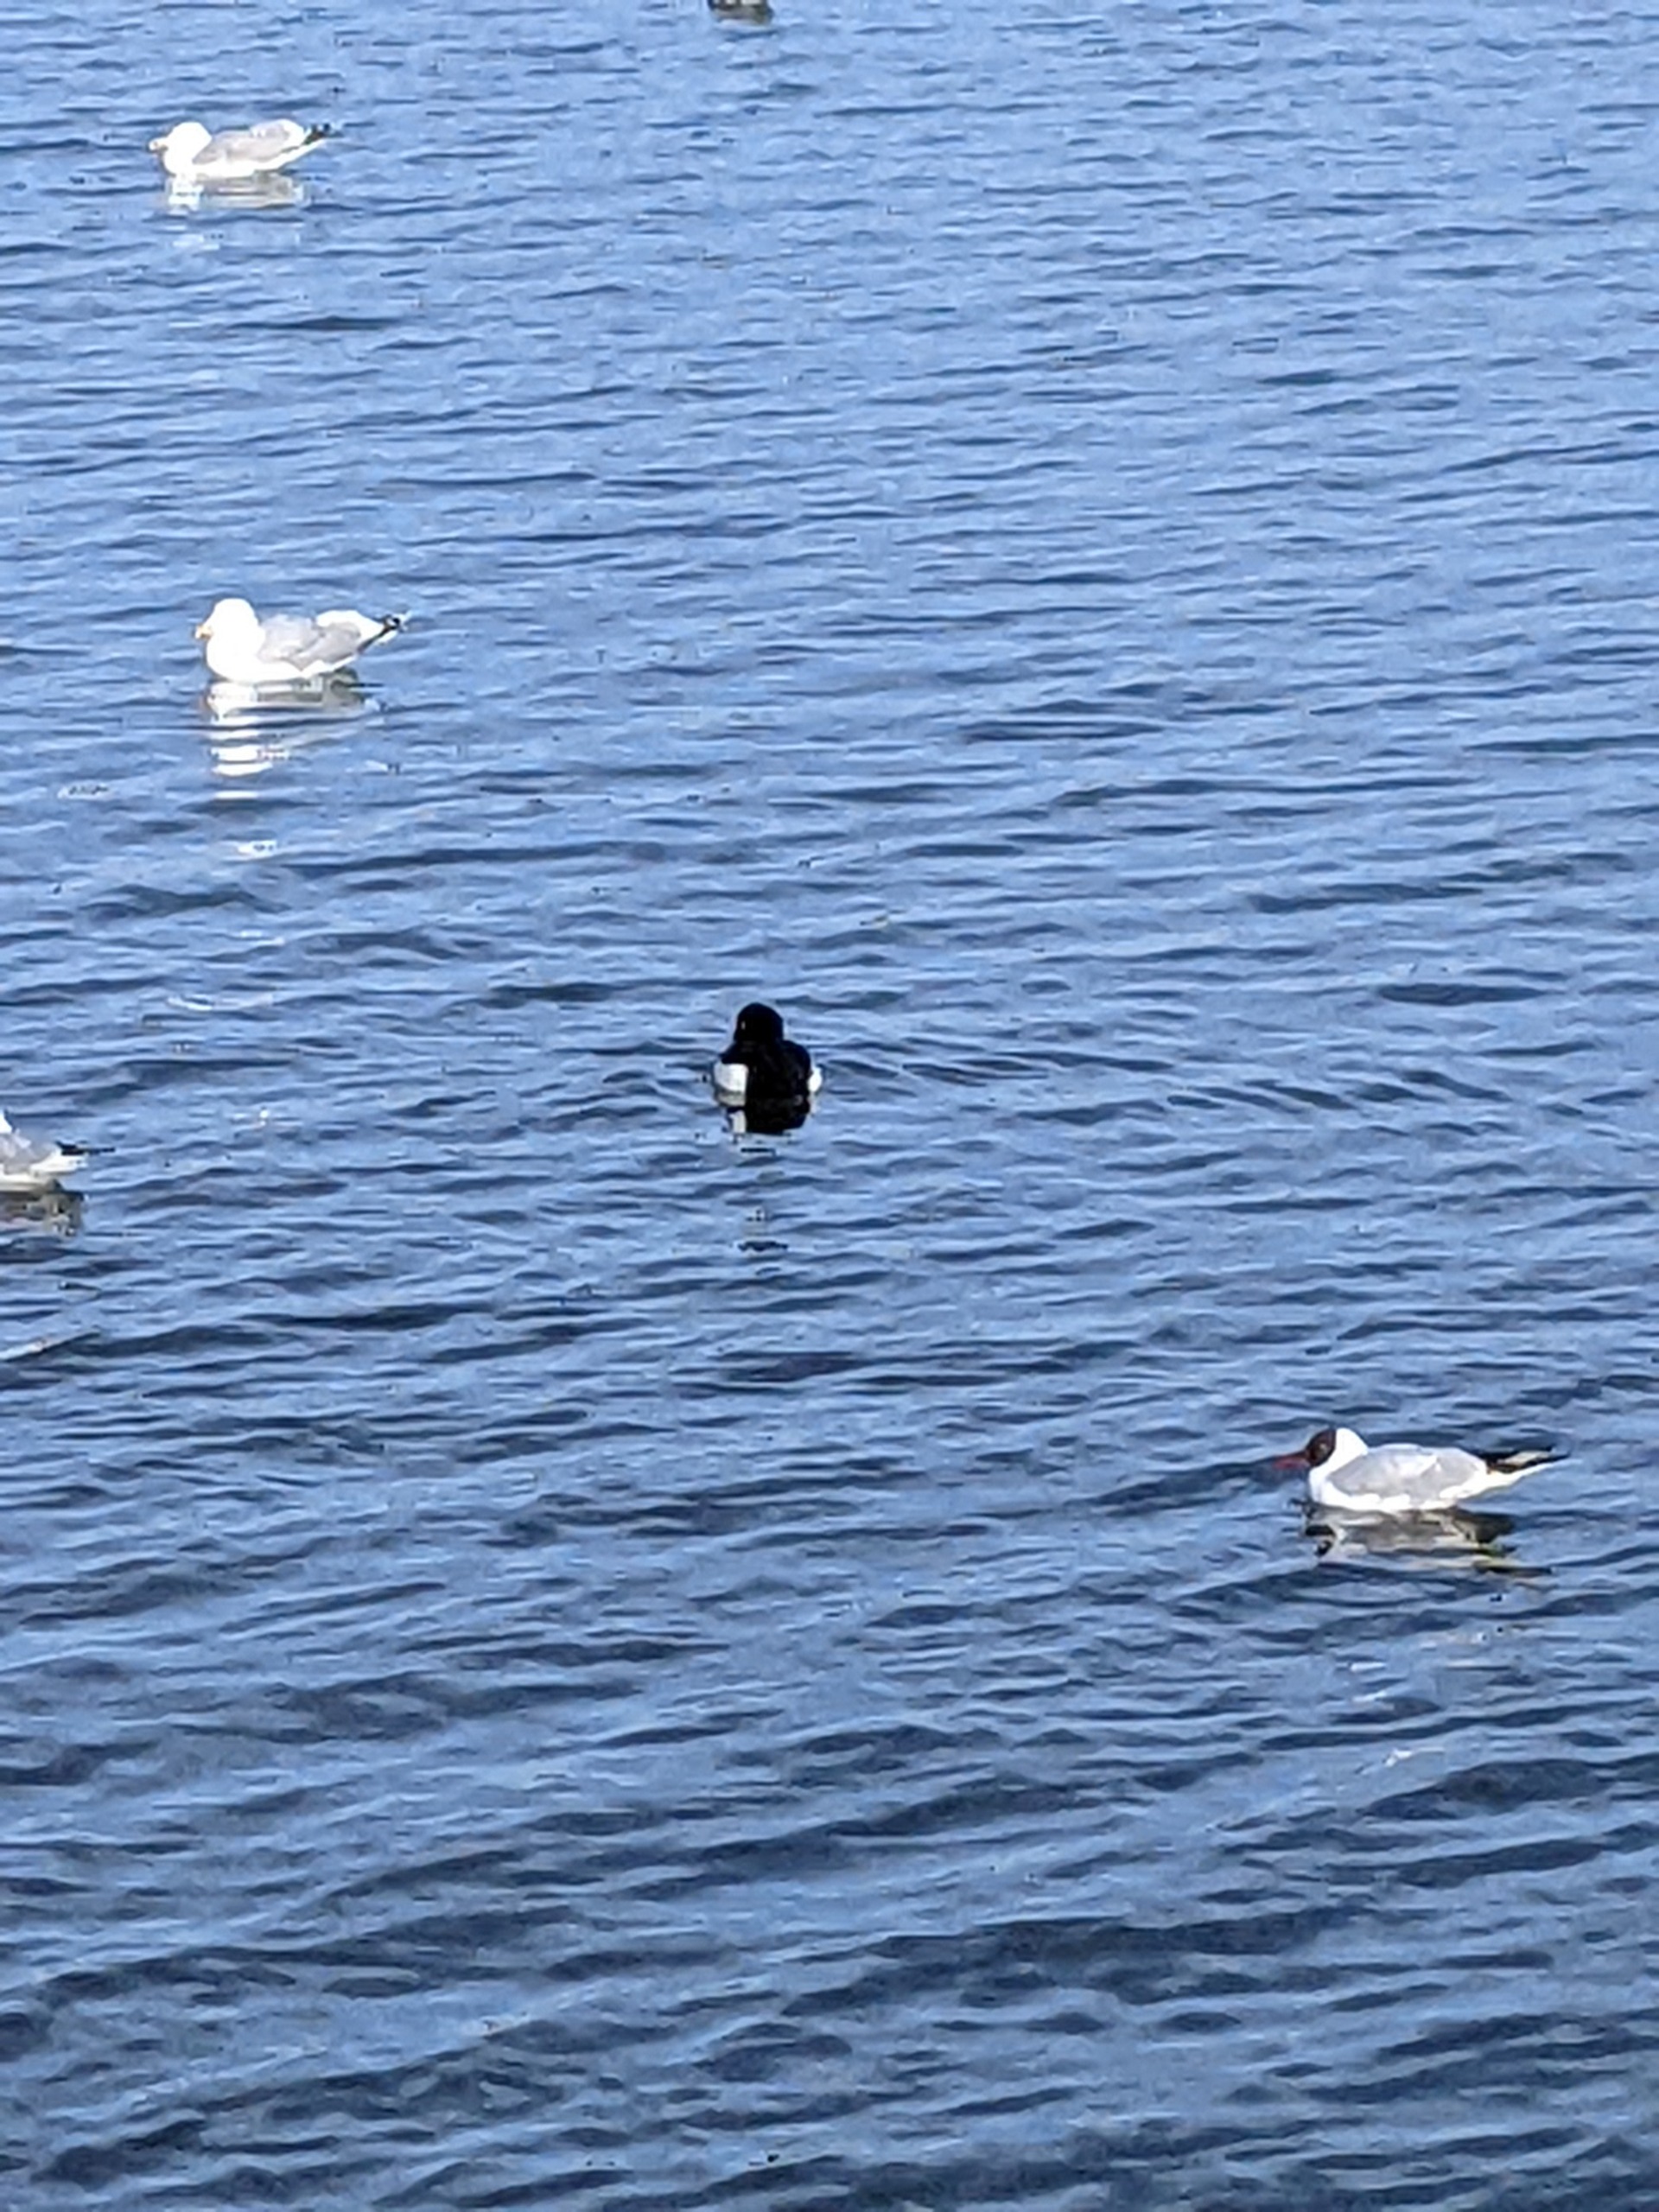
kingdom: Animalia
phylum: Chordata
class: Aves
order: Anseriformes
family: Anatidae
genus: Aythya
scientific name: Aythya fuligula
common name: Troldand
